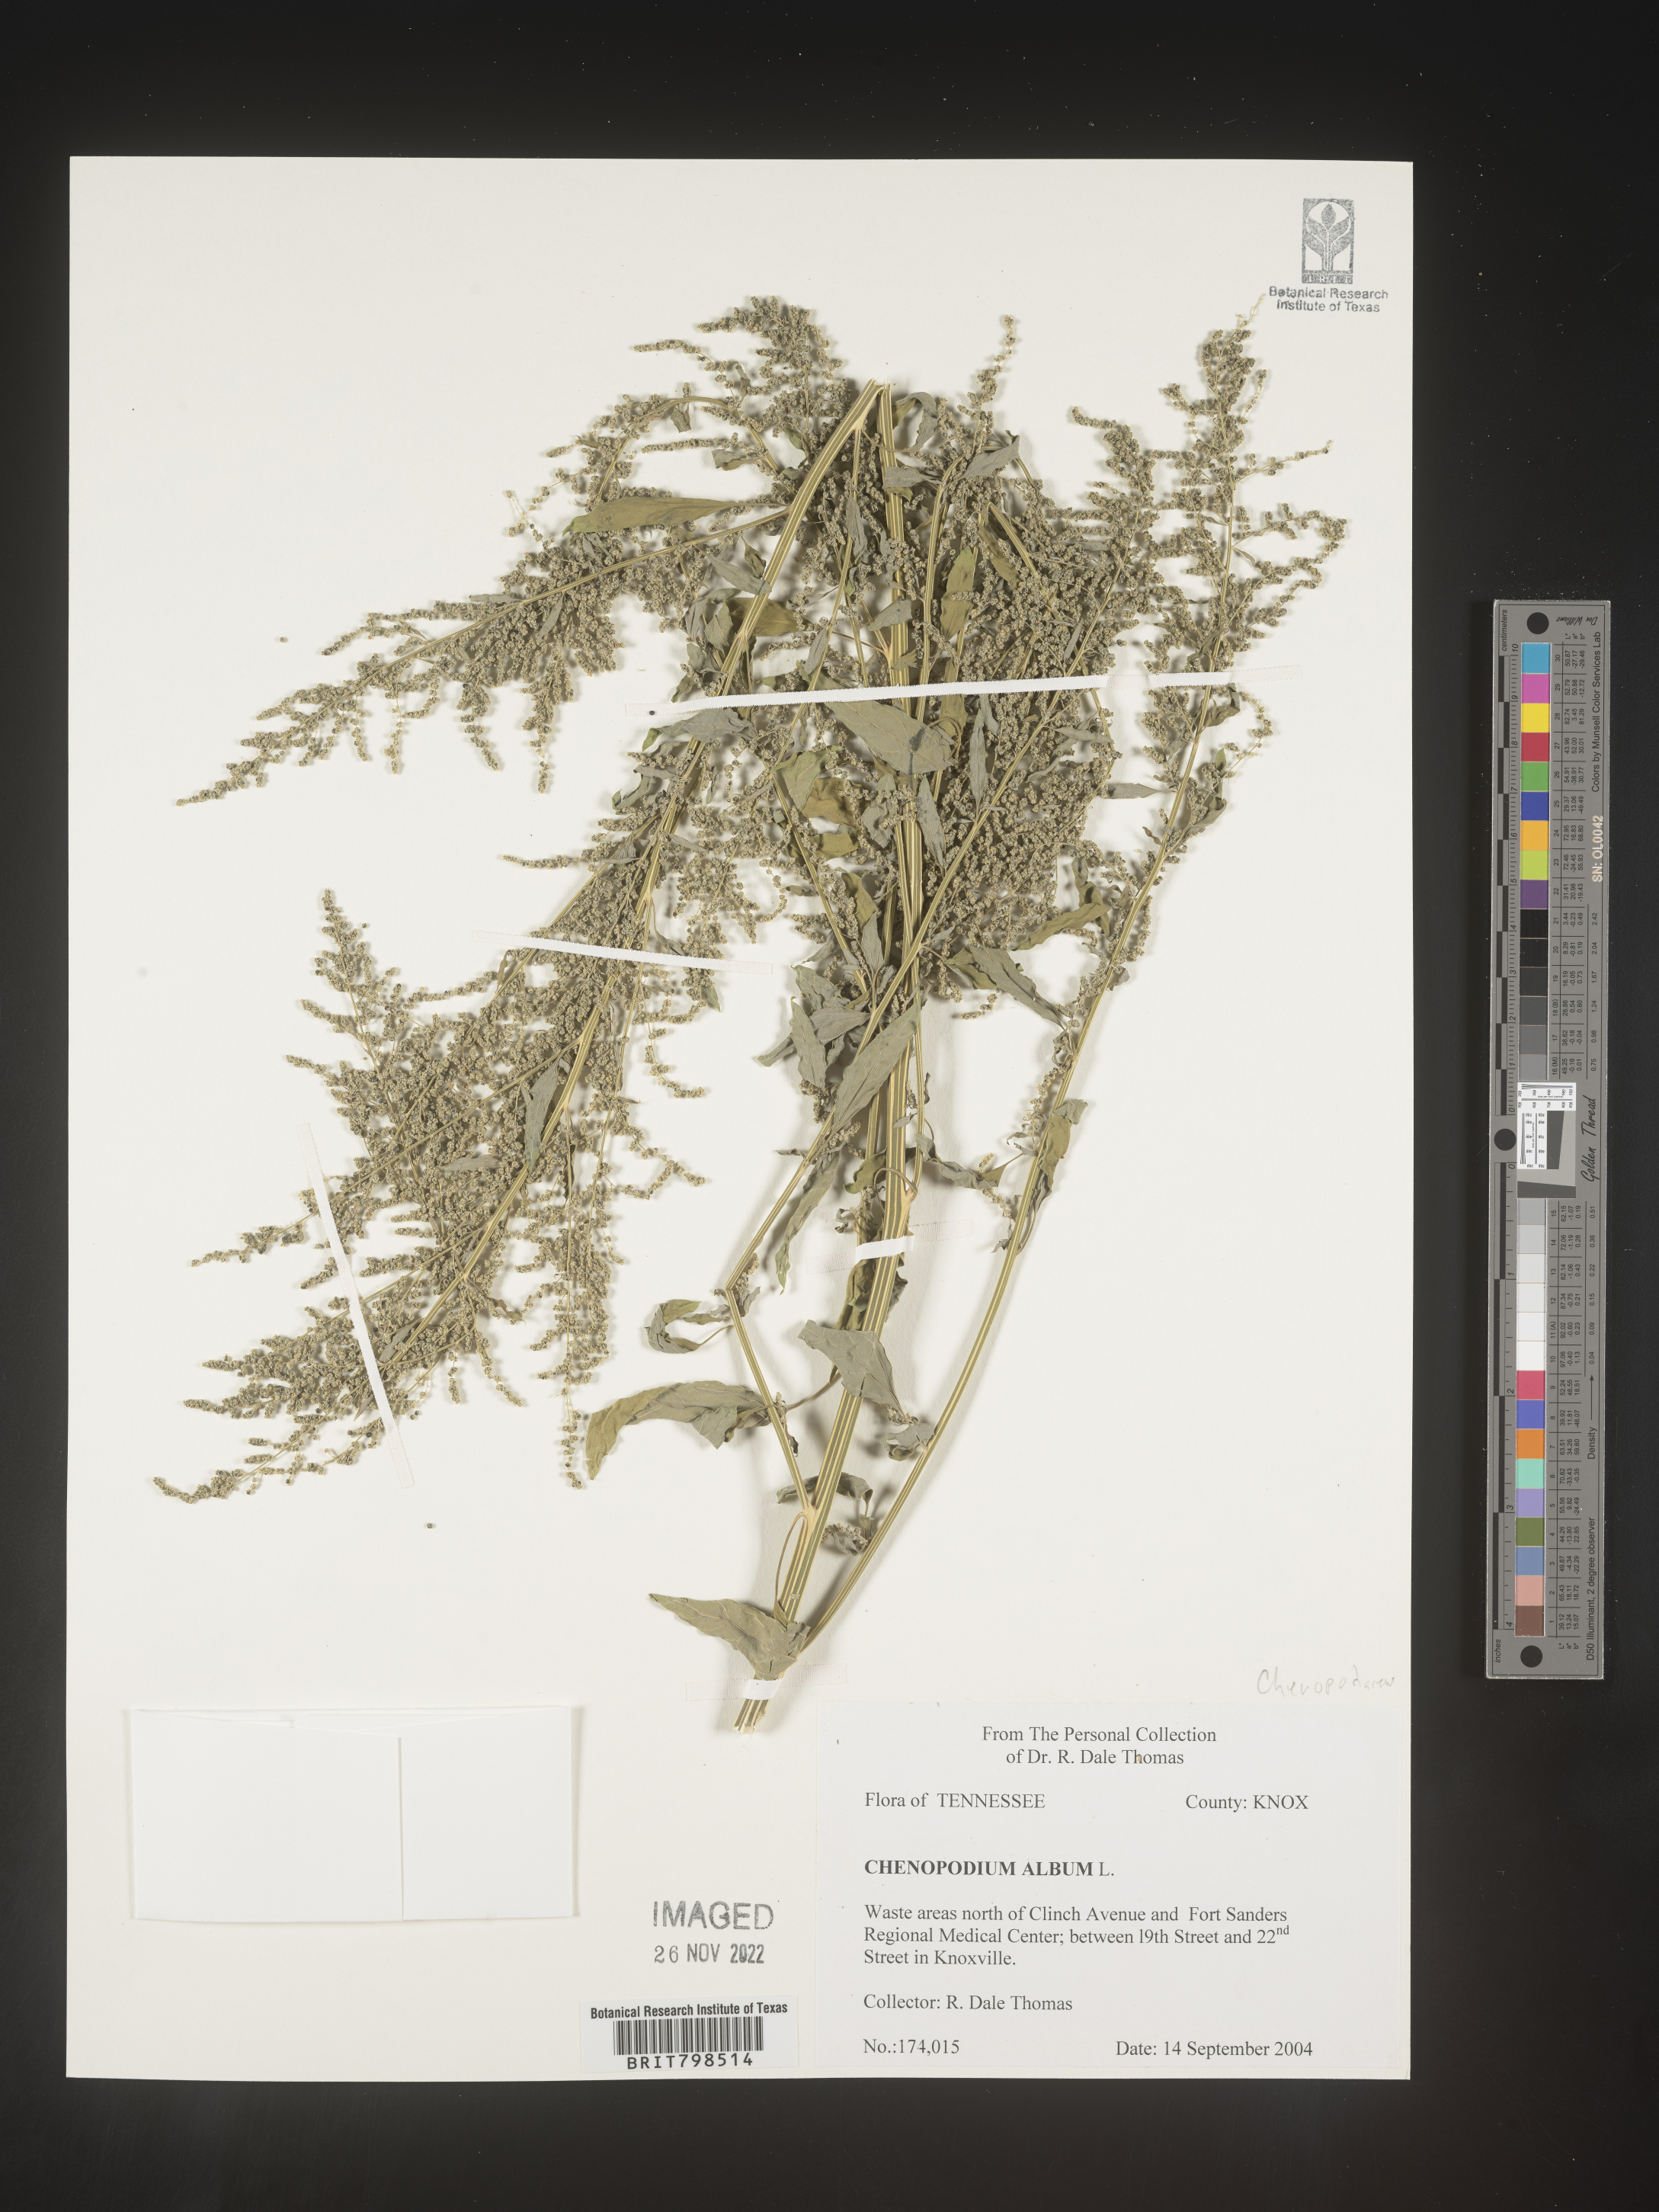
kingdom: Plantae
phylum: Tracheophyta
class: Magnoliopsida
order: Caryophyllales
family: Amaranthaceae
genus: Chenopodium
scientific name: Chenopodium album
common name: Fat-hen
